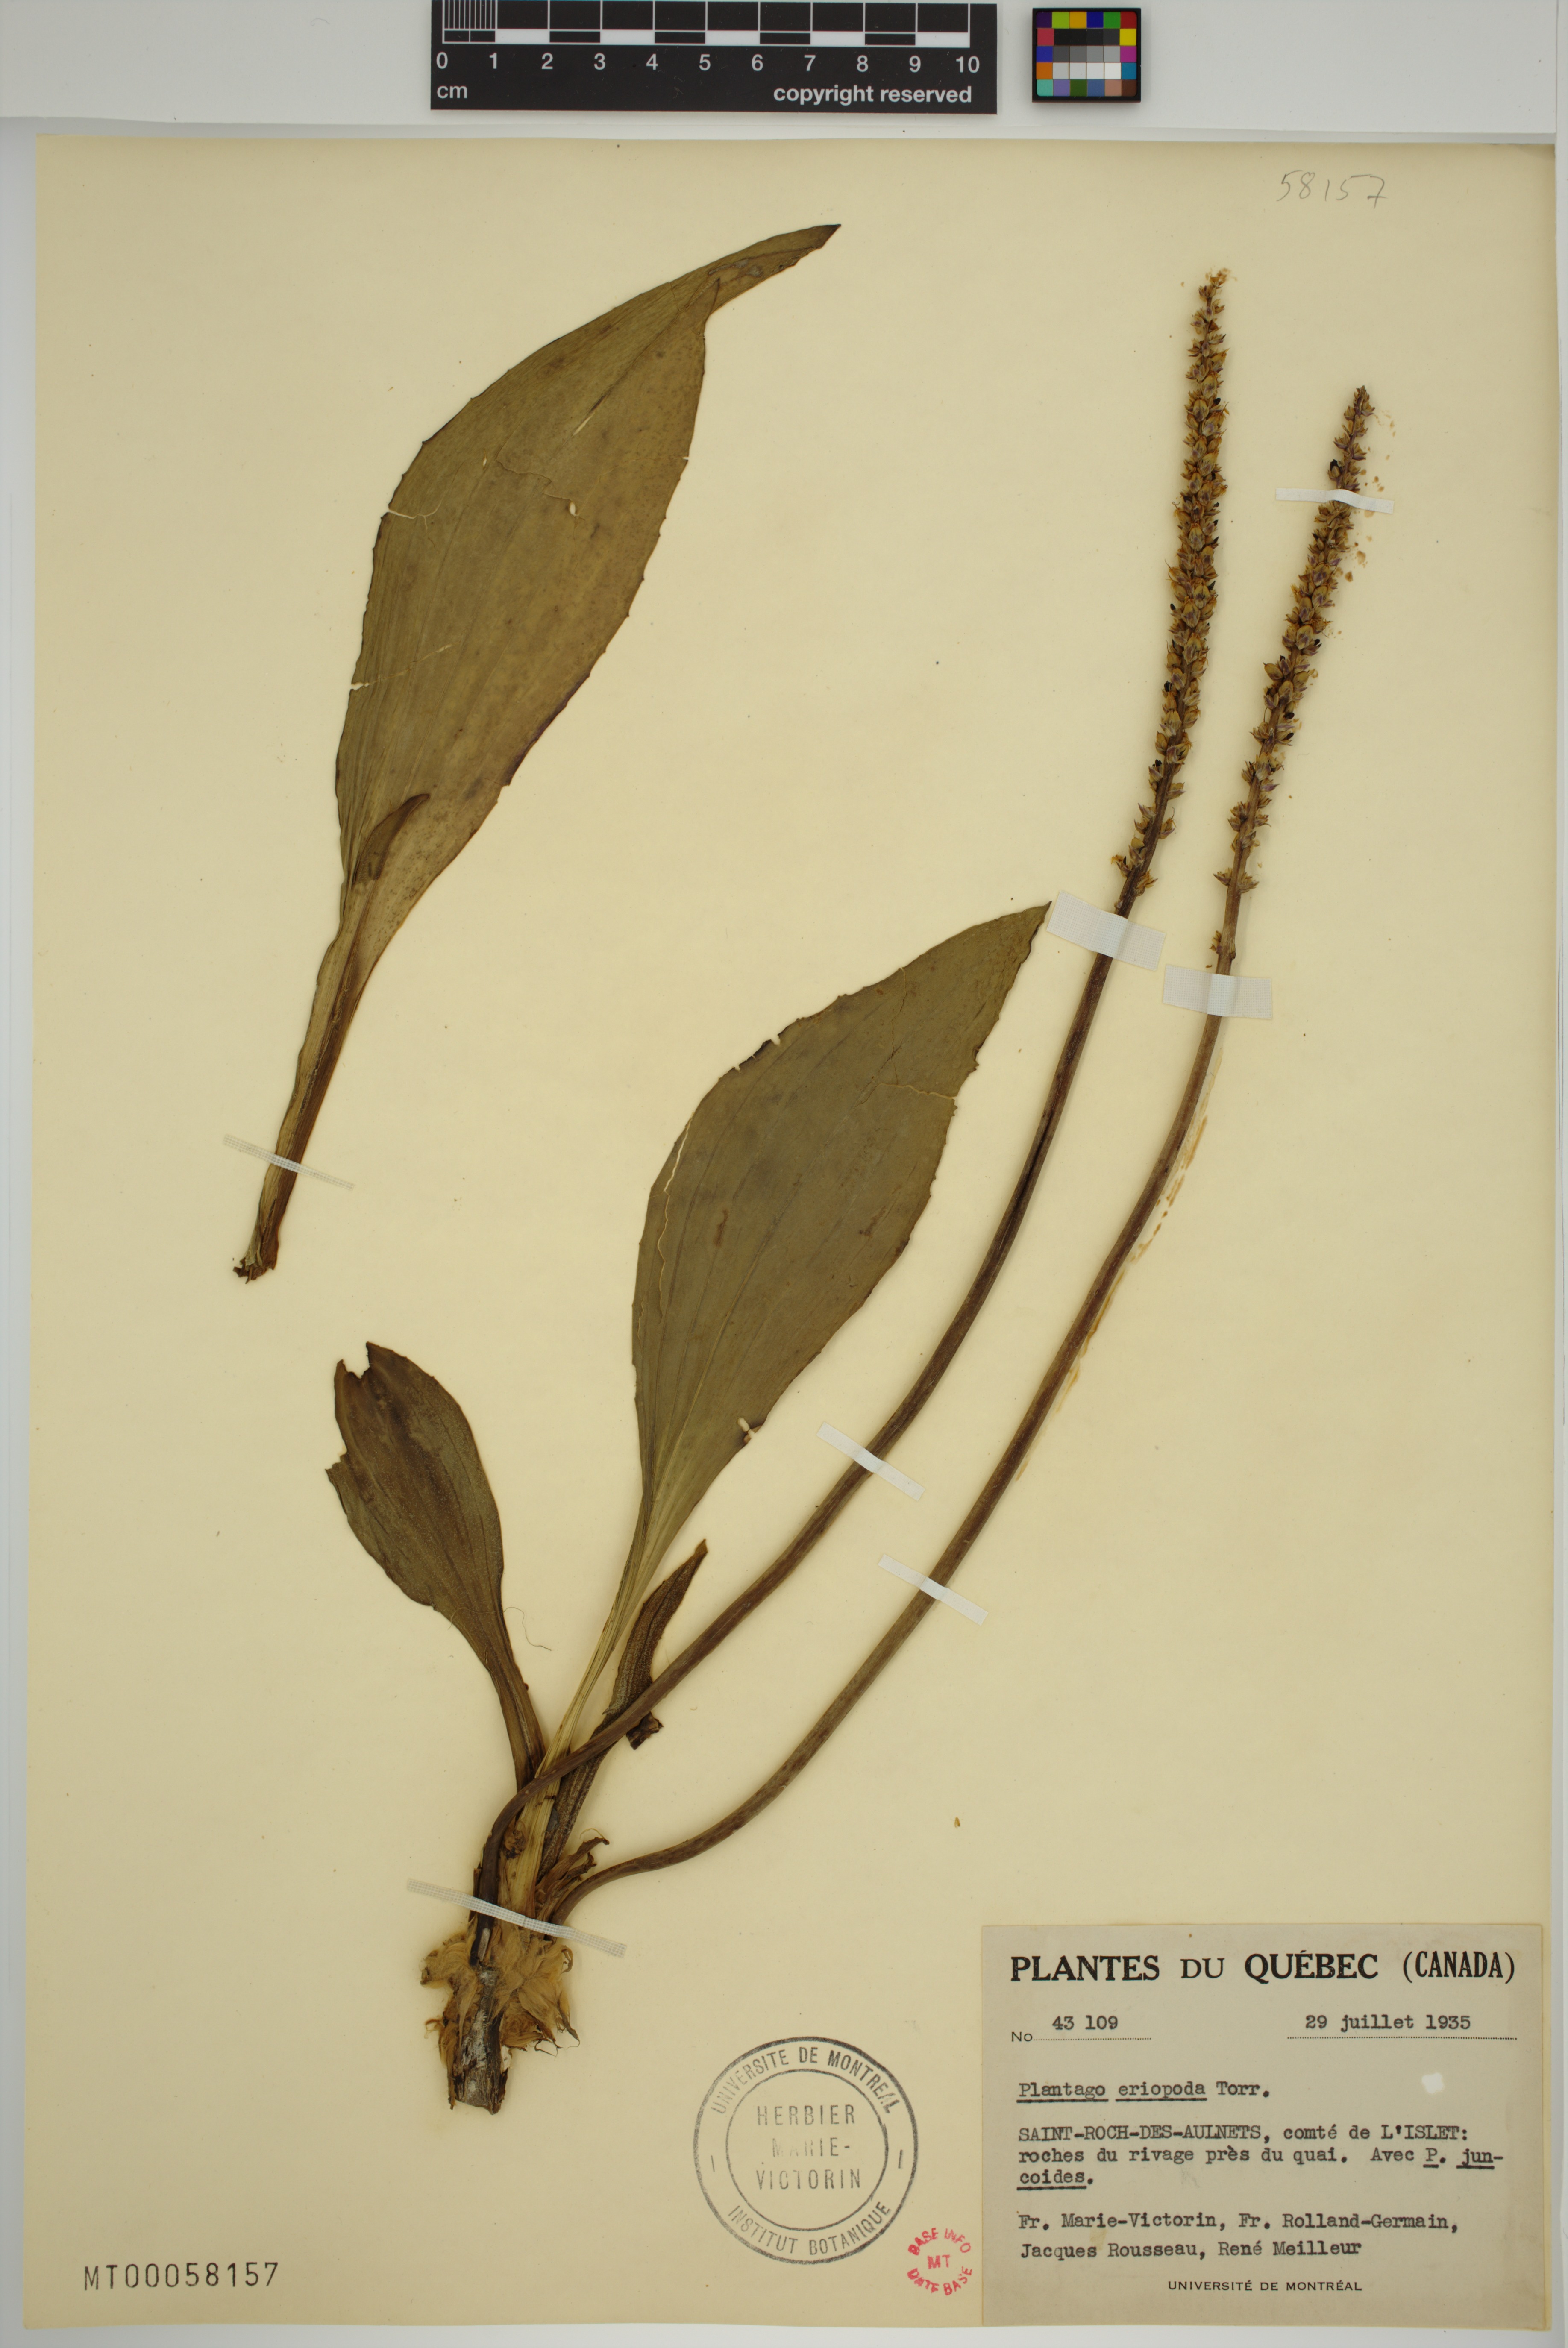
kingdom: Plantae
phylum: Tracheophyta
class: Magnoliopsida
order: Lamiales
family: Plantaginaceae
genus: Plantago
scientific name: Plantago eriopoda
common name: Alkali plantain
